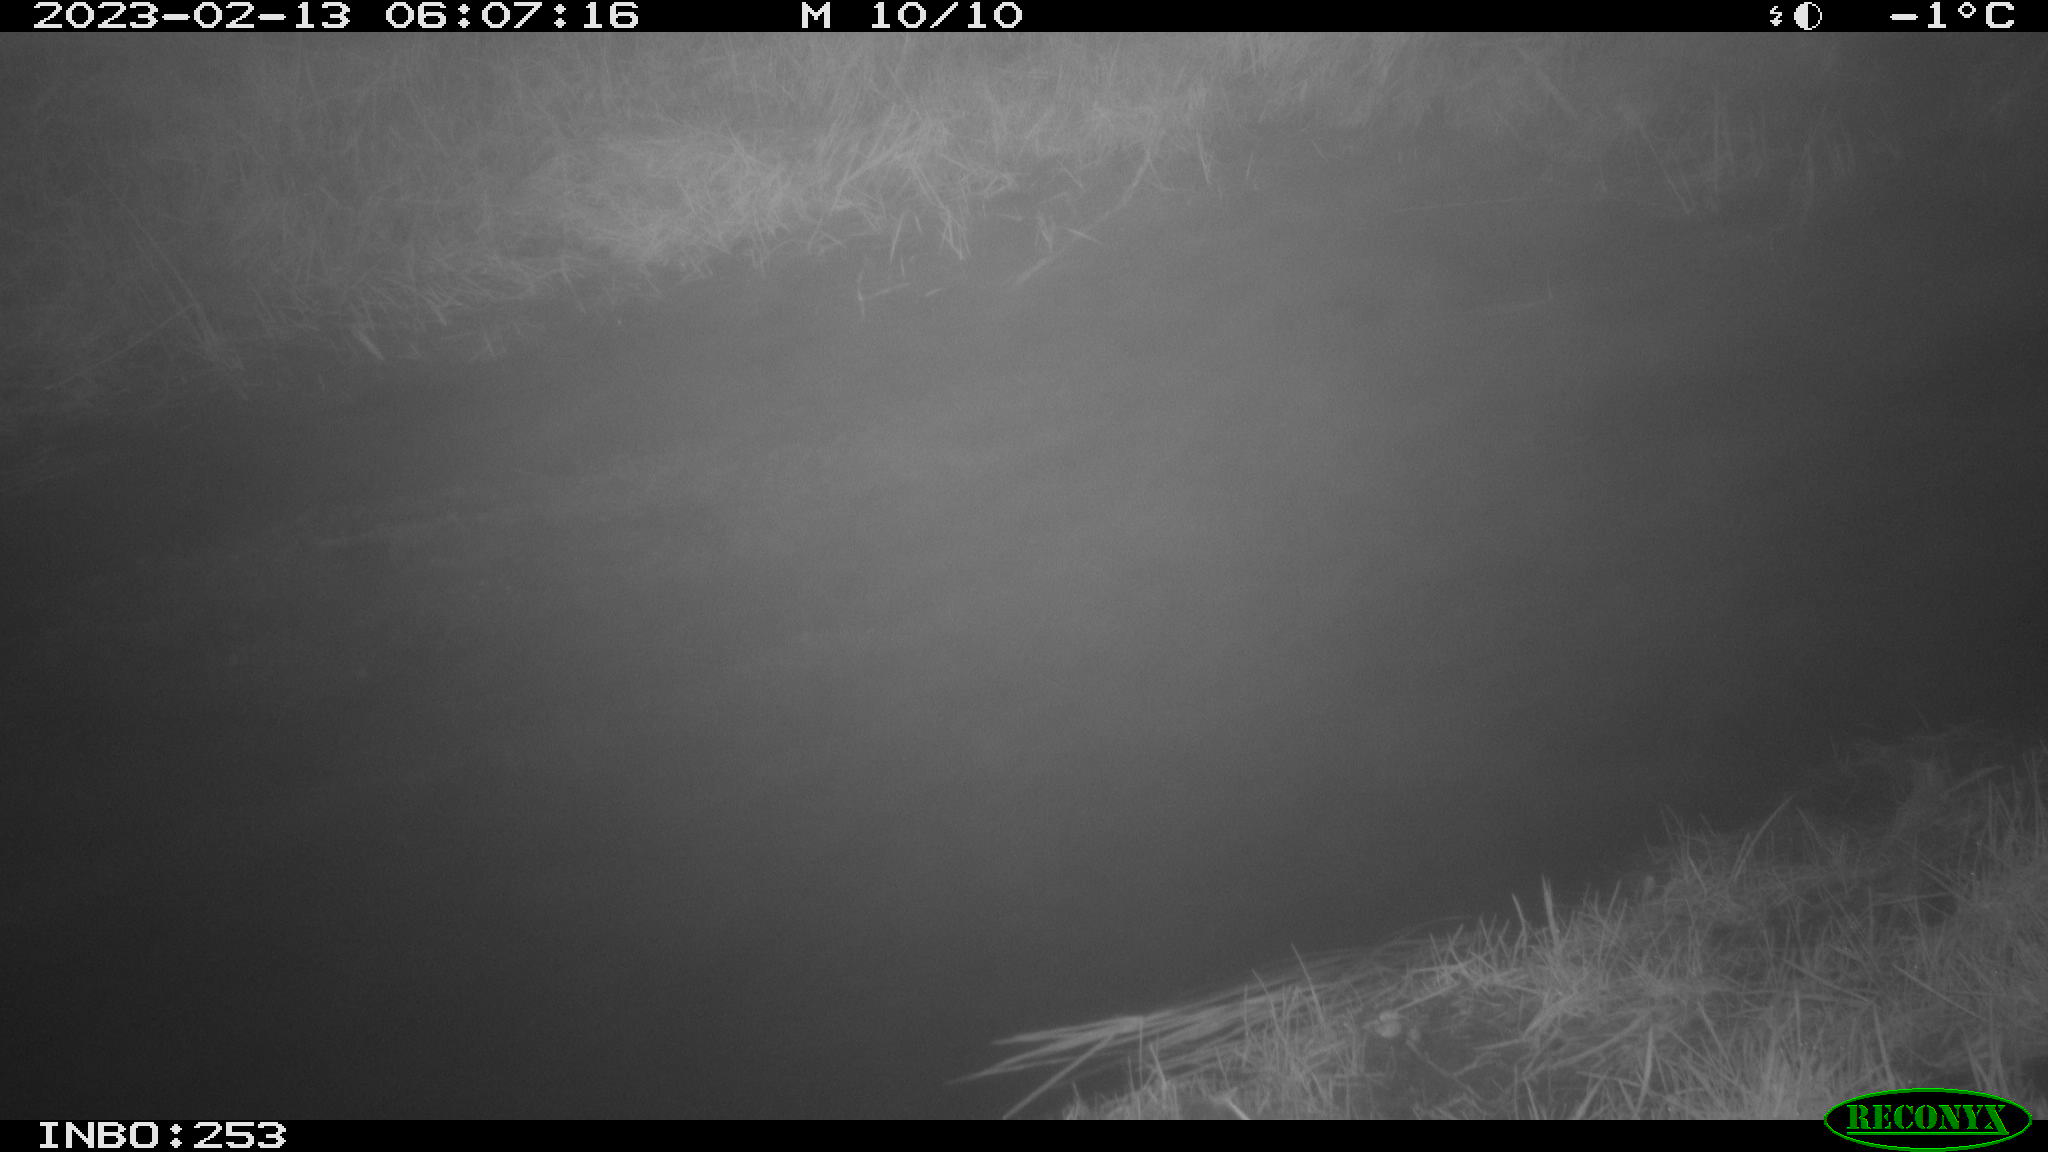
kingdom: Animalia
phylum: Chordata
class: Aves
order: Anseriformes
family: Anatidae
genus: Anas
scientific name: Anas
